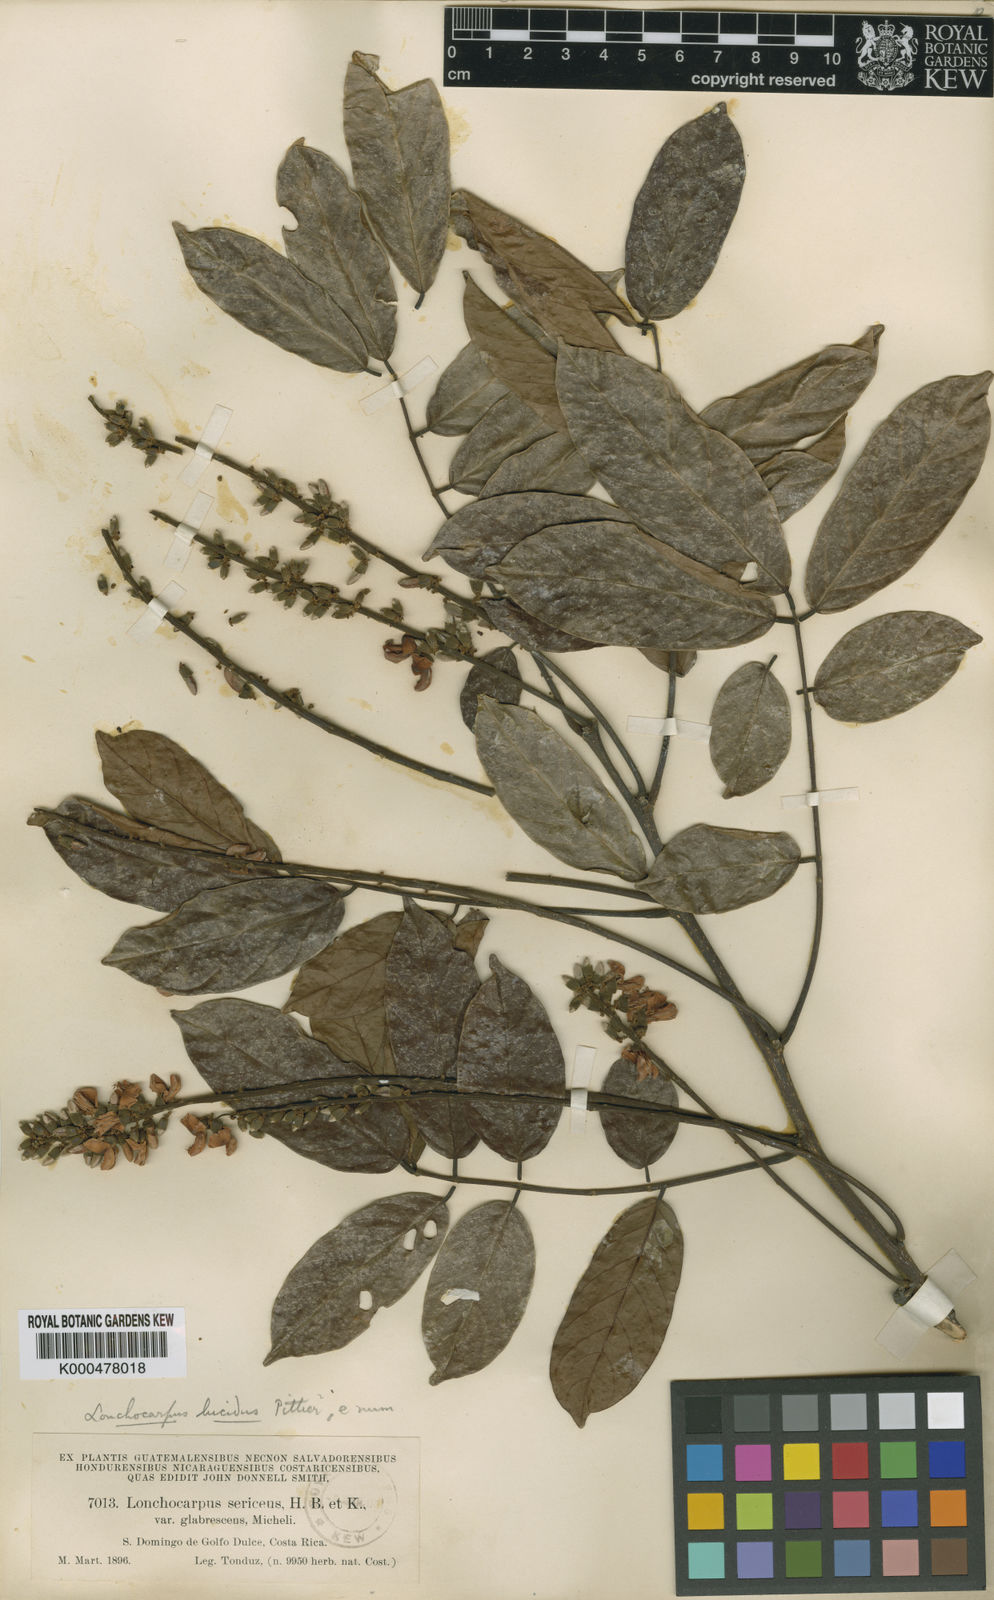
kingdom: Plantae
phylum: Tracheophyta
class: Magnoliopsida
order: Fabales
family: Fabaceae
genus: Lonchocarpus
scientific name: Lonchocarpus macrophyllus
